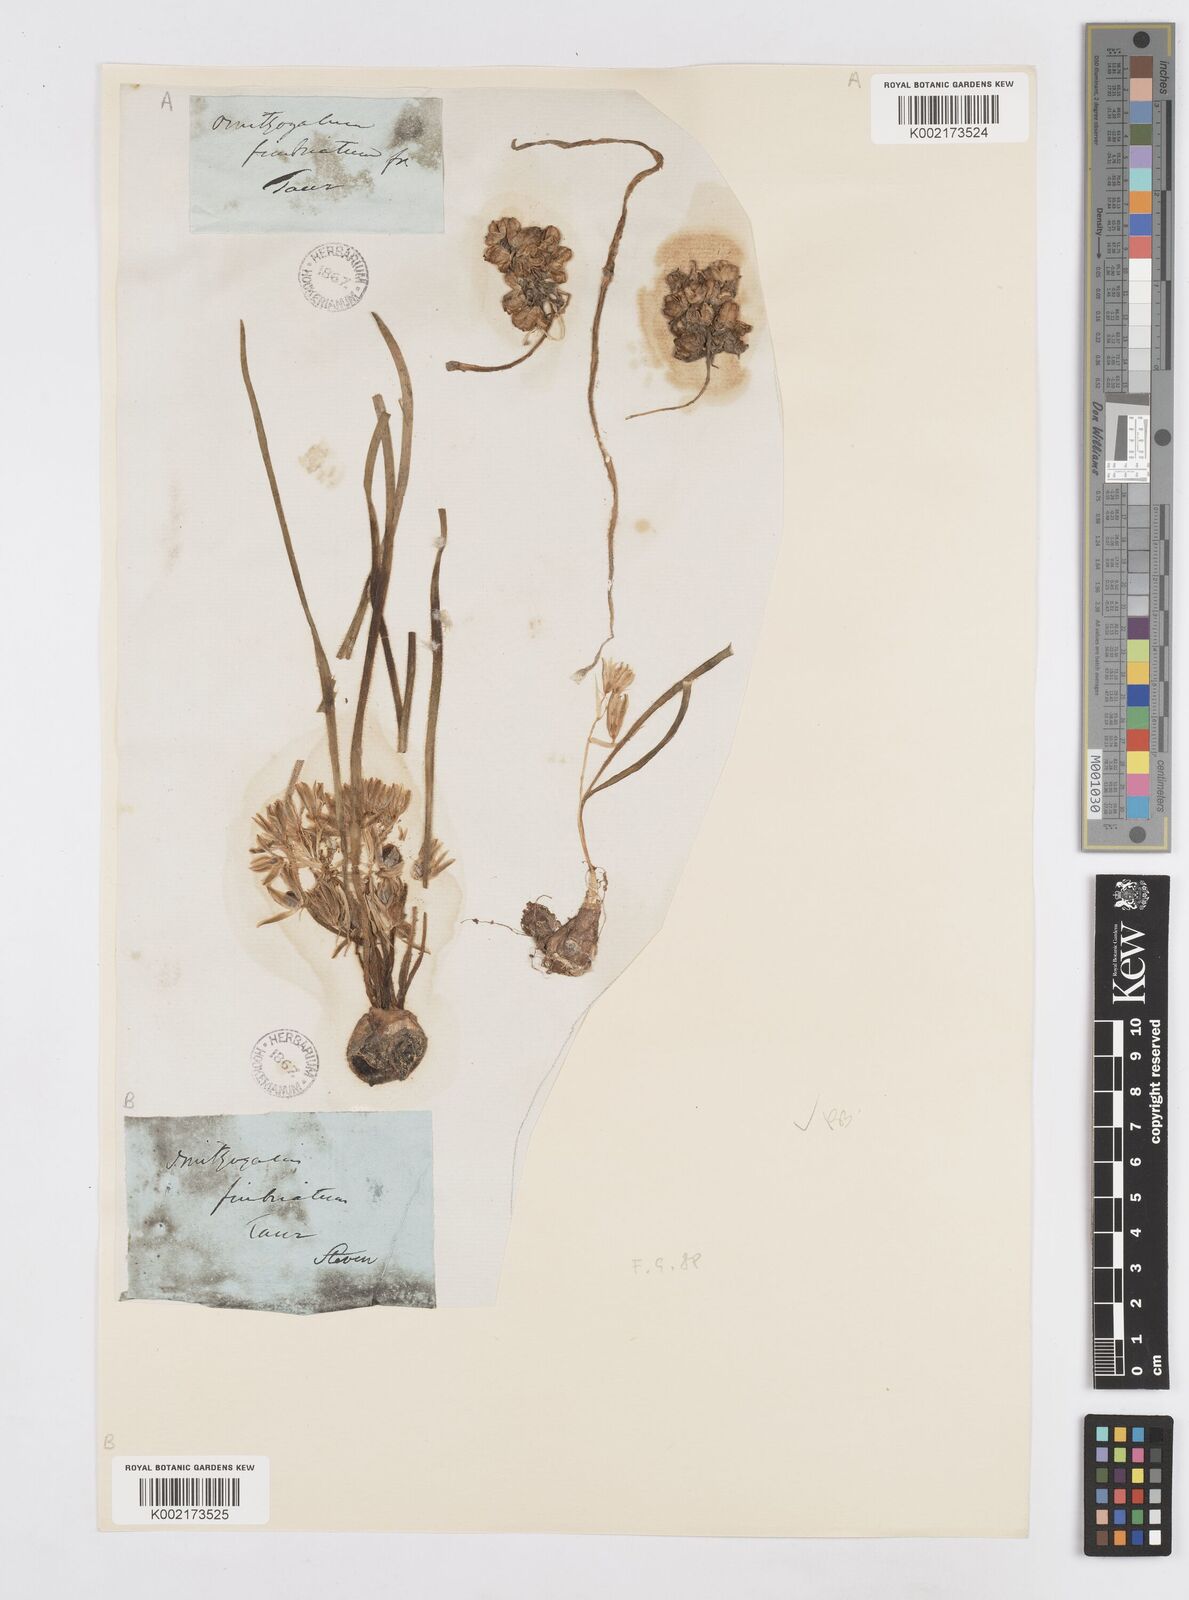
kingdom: Plantae
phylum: Tracheophyta
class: Liliopsida
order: Asparagales
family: Asparagaceae
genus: Ornithogalum
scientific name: Ornithogalum fimbriatum
